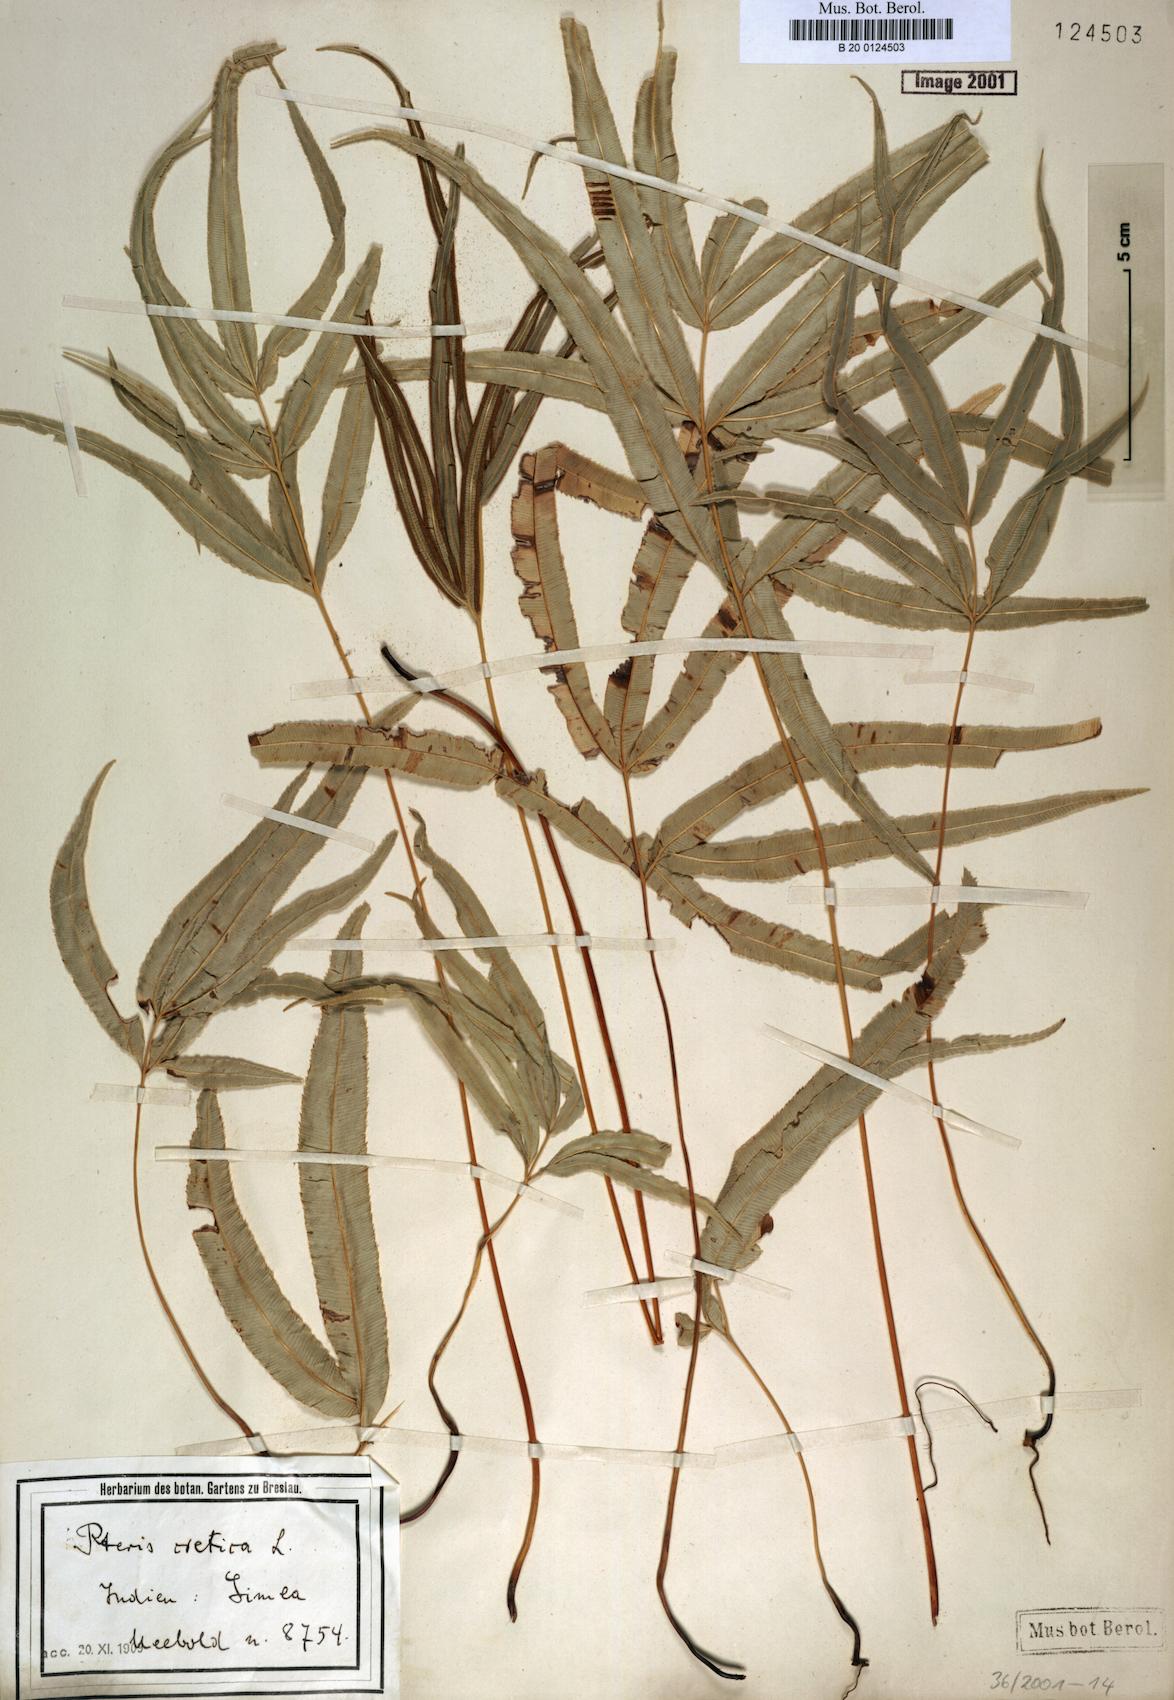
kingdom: Plantae
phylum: Tracheophyta
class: Polypodiopsida
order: Polypodiales
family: Pteridaceae
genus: Pteris
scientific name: Pteris cretica
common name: Ribbon fern
